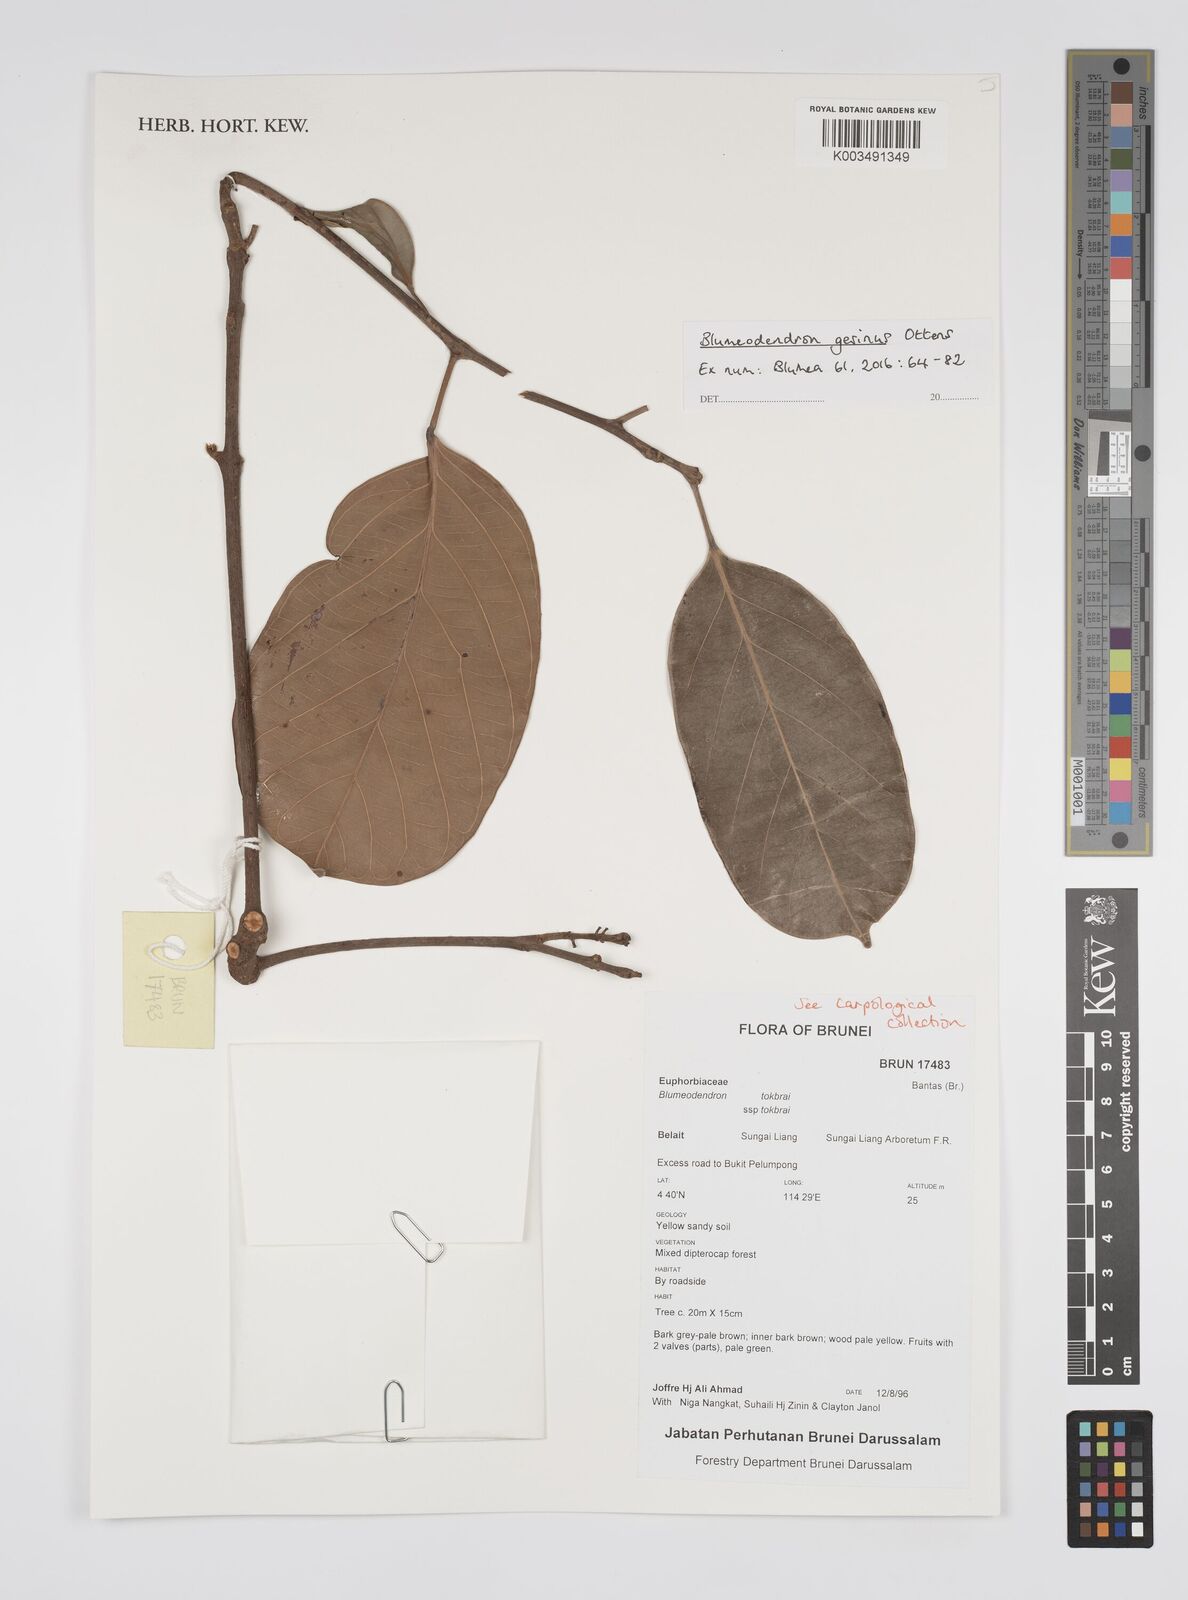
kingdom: Plantae
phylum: Tracheophyta
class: Magnoliopsida
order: Malpighiales
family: Euphorbiaceae
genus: Blumeodendron
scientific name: Blumeodendron gesinus
